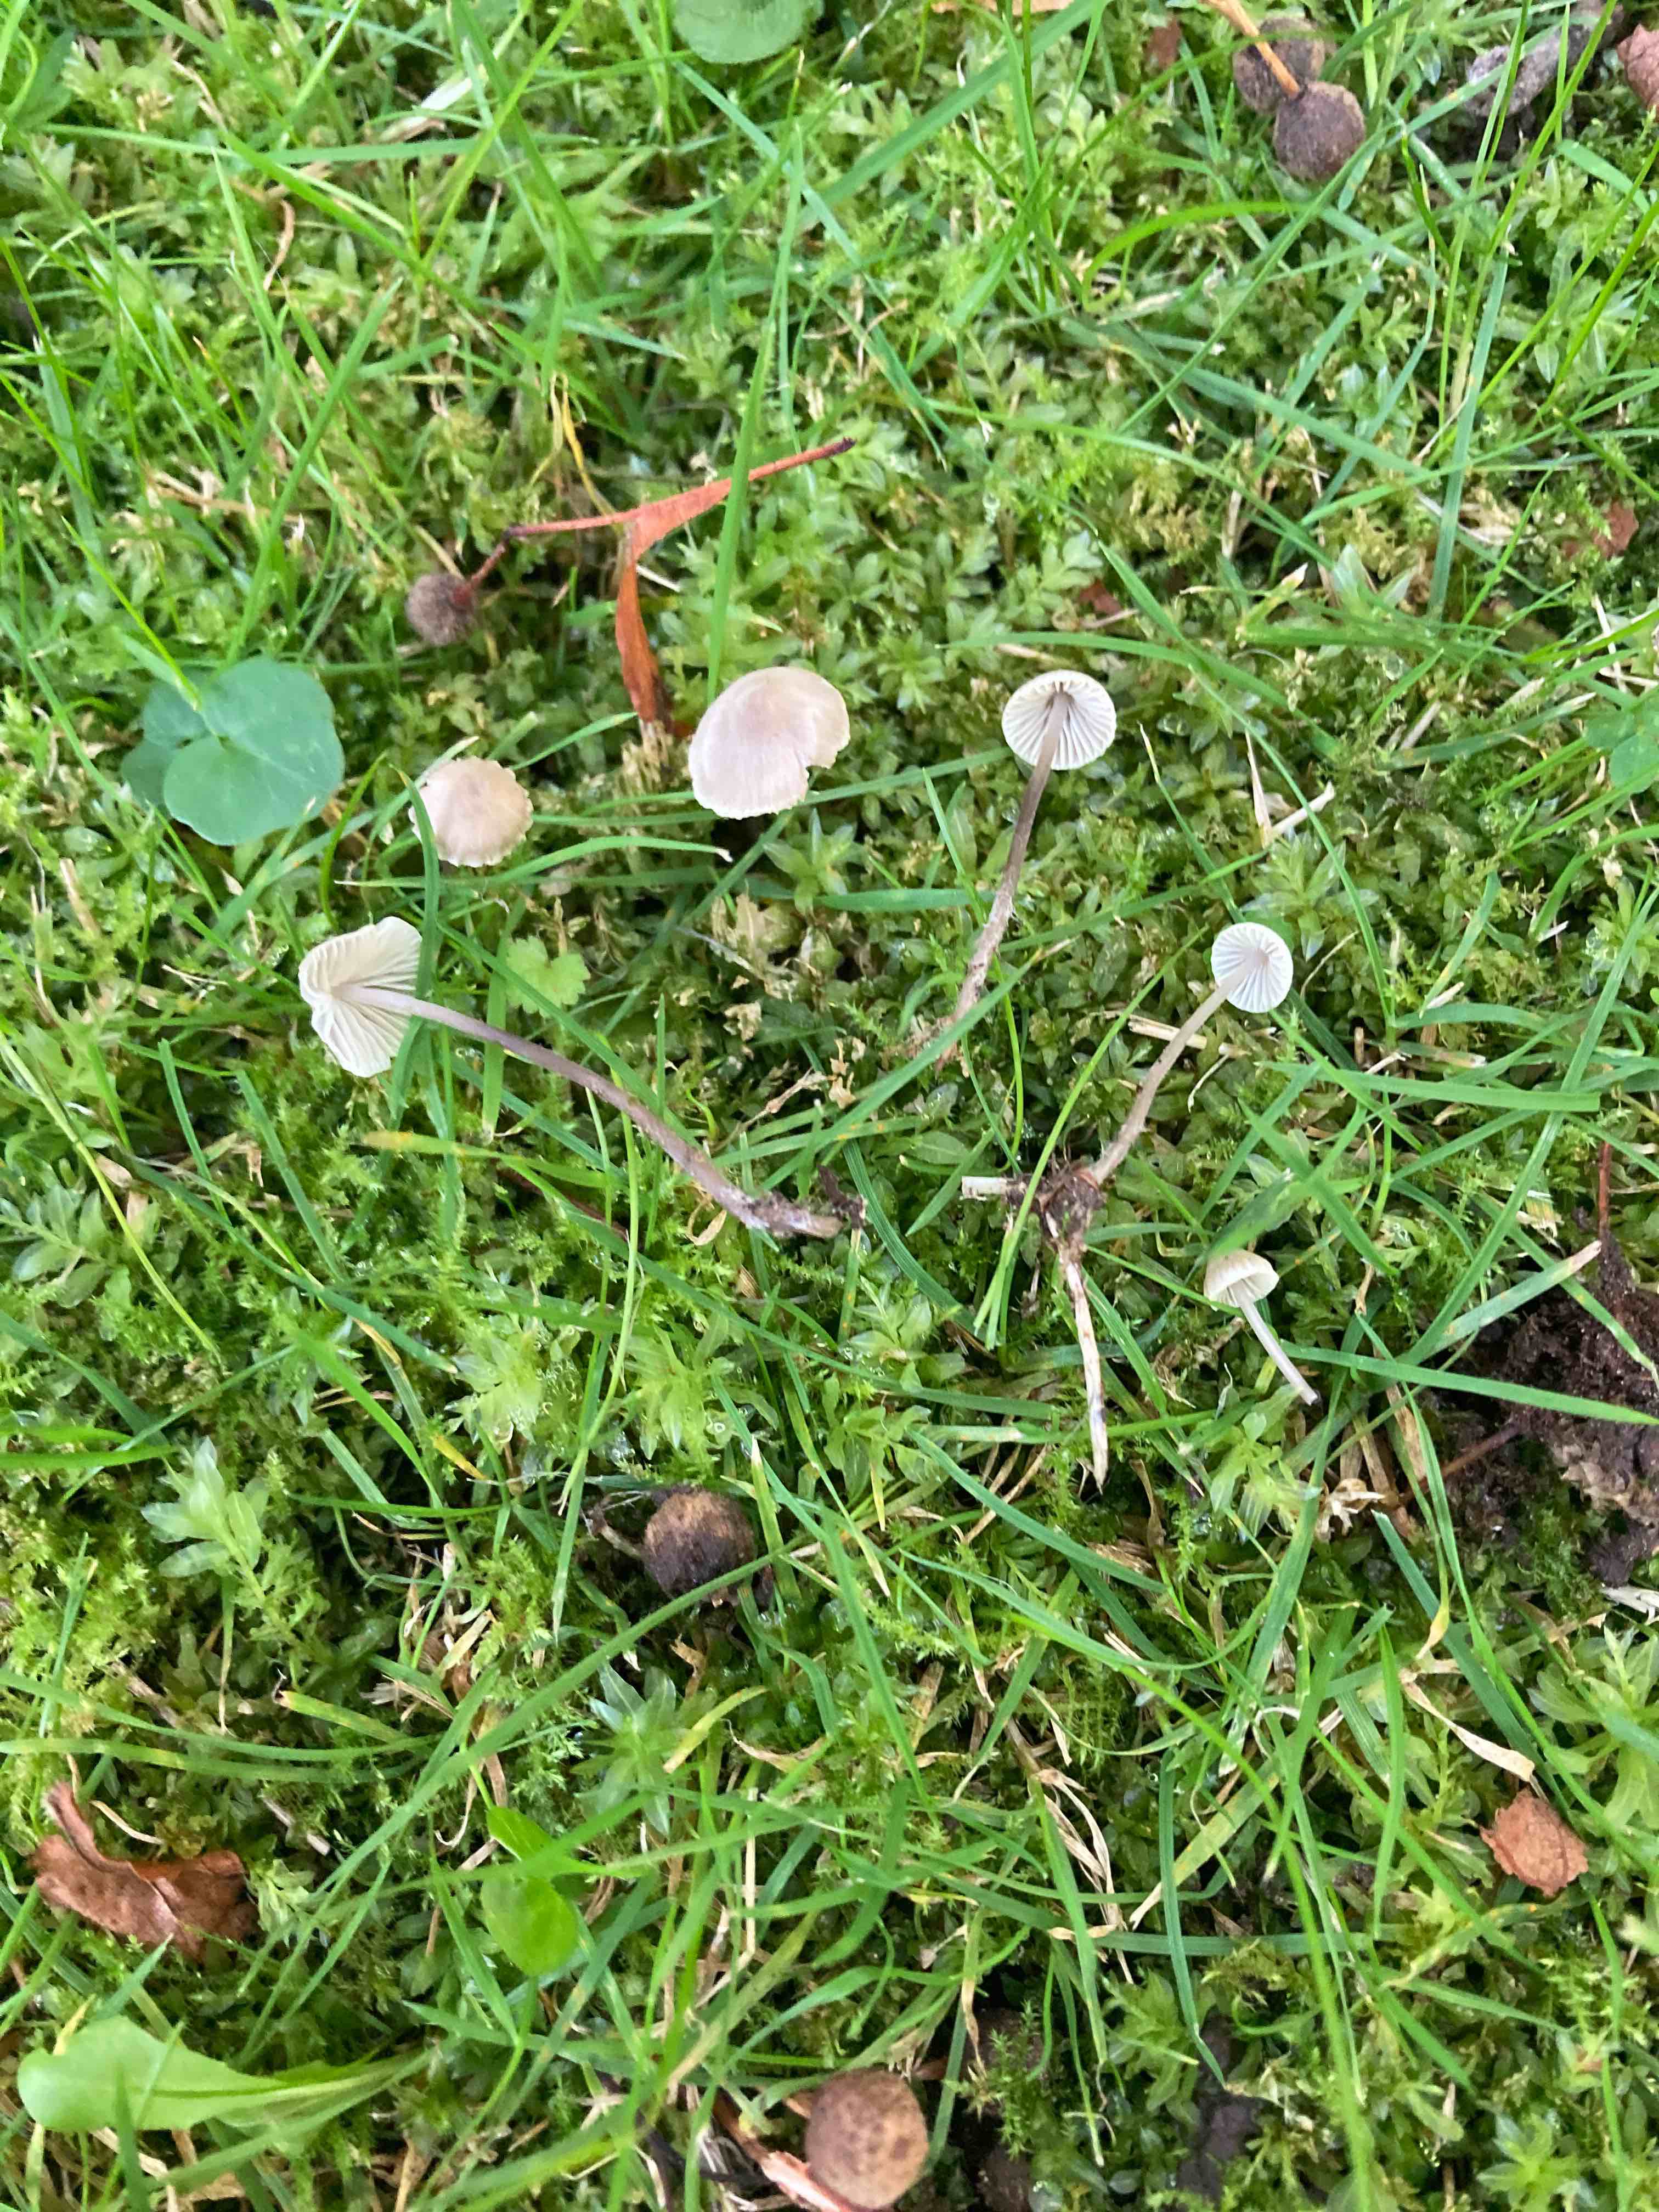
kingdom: Fungi
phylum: Basidiomycota
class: Agaricomycetes
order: Agaricales
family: Mycenaceae
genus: Mycena
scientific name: Mycena flavescens
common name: grågul huesvamp
